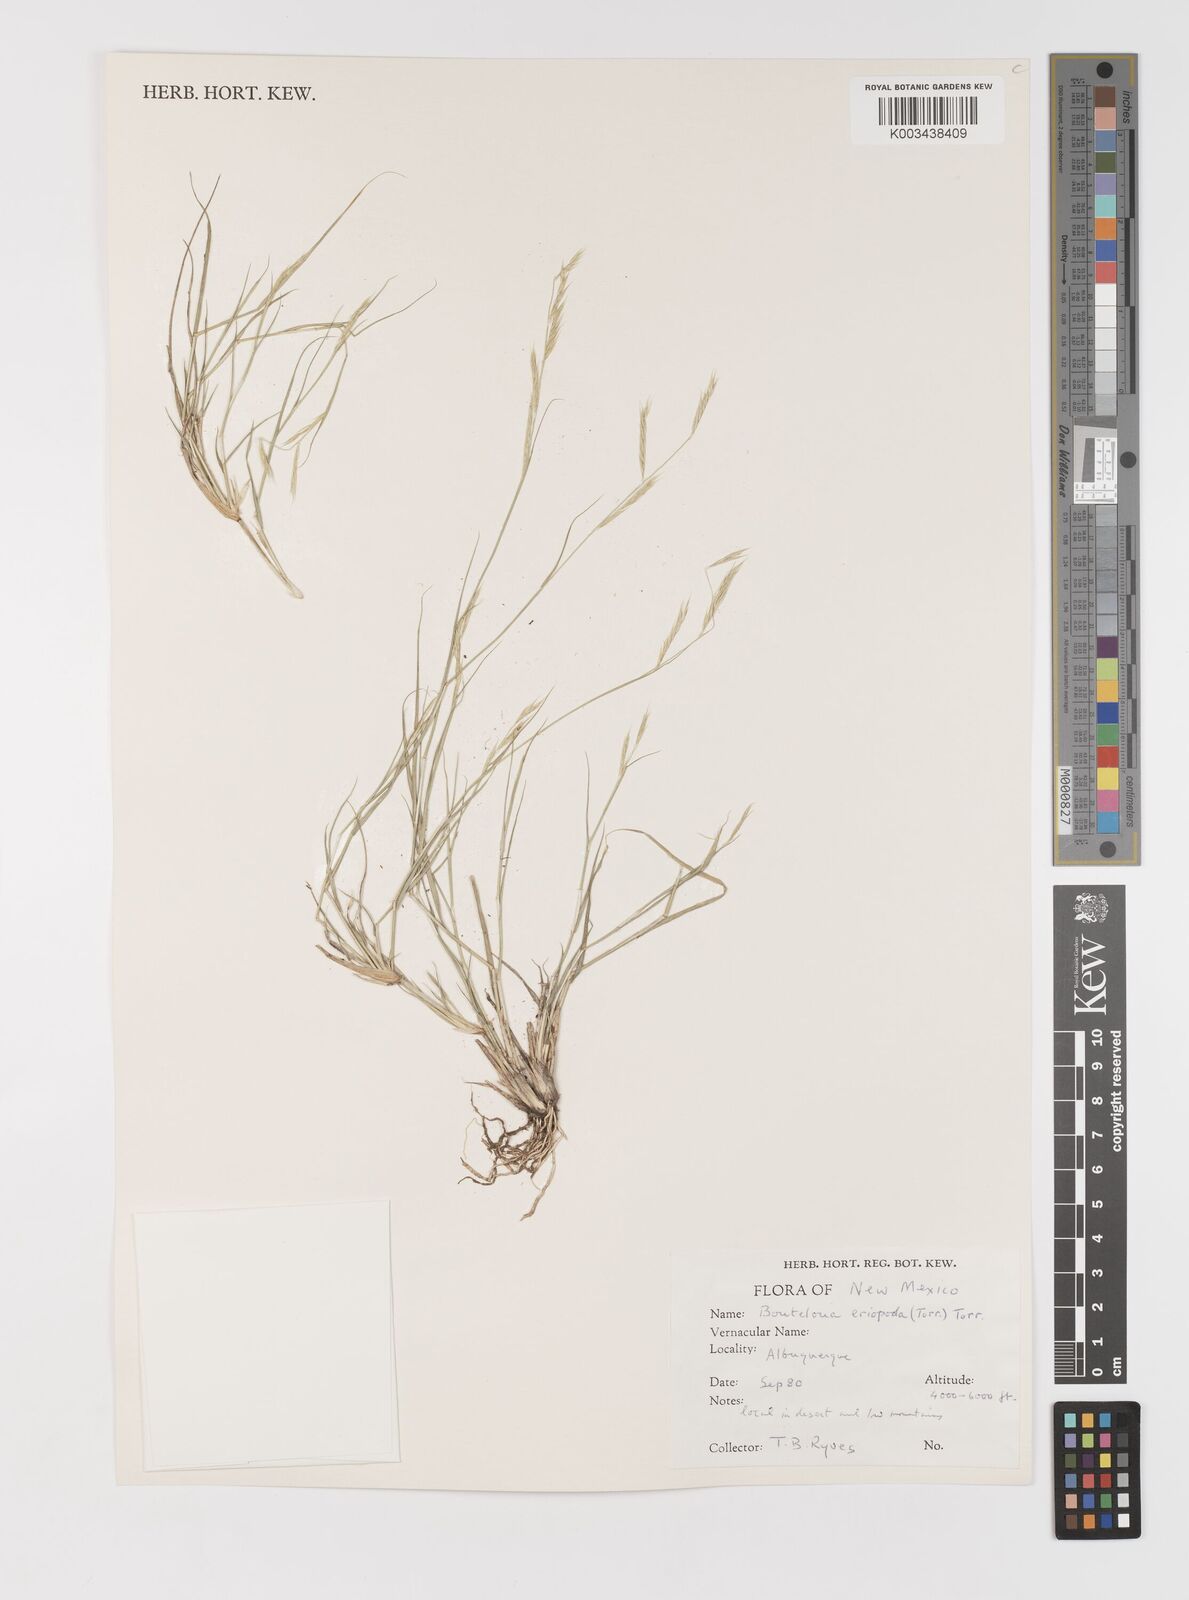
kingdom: Plantae
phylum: Tracheophyta
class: Liliopsida
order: Poales
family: Poaceae
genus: Bouteloua
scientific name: Bouteloua eriopoda
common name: Woolly foot grama
